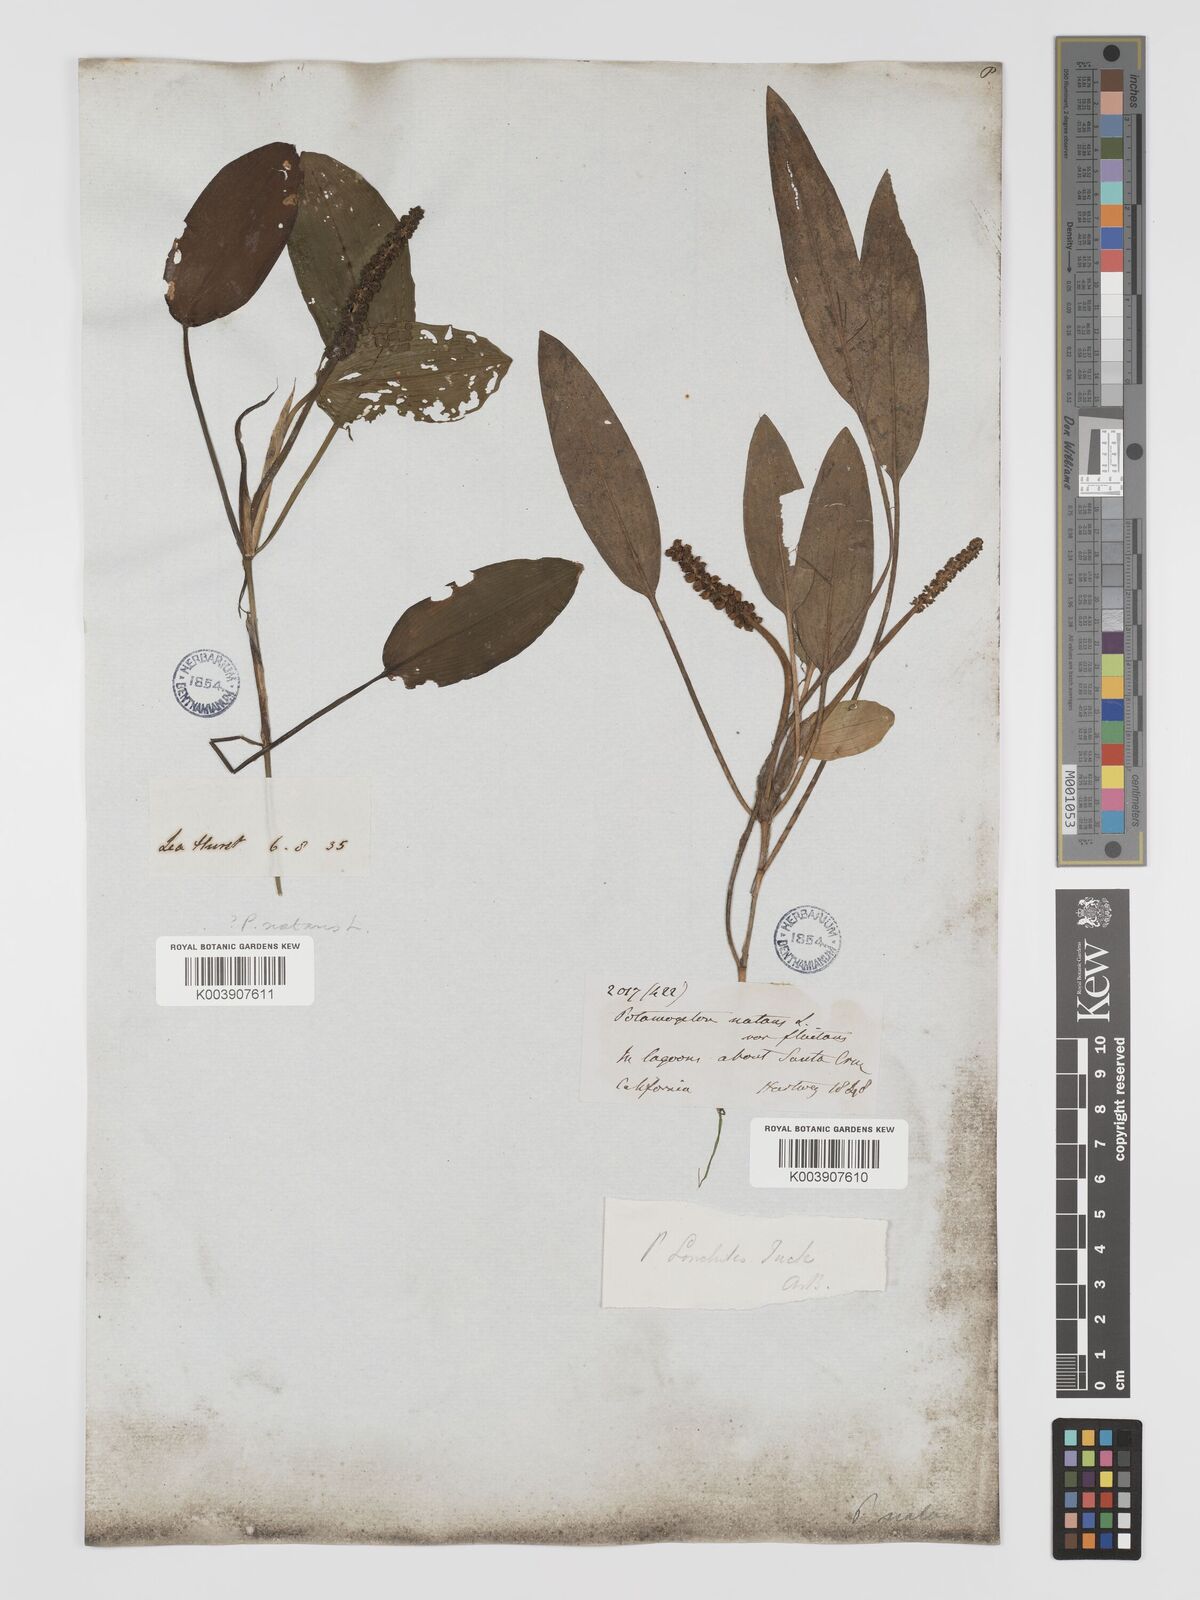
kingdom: Plantae
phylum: Tracheophyta
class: Liliopsida
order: Alismatales
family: Potamogetonaceae
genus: Potamogeton
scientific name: Potamogeton nodosus
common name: Loddon pondweed
